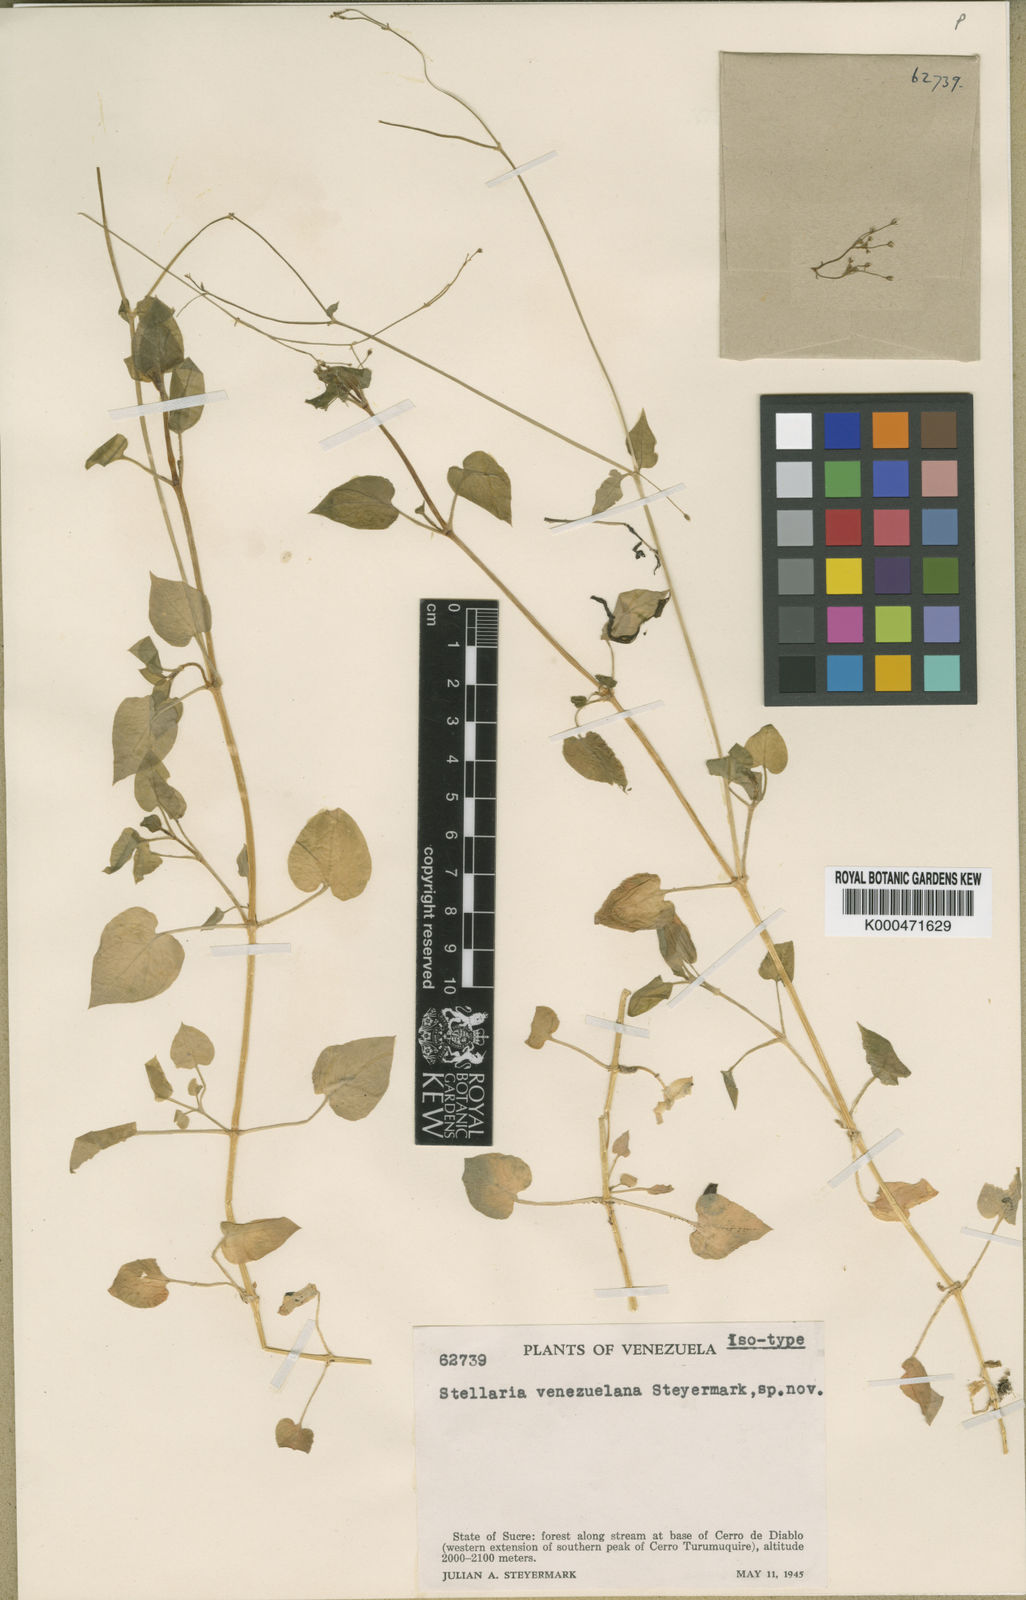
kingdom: Plantae
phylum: Tracheophyta
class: Magnoliopsida
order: Caryophyllales
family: Caryophyllaceae
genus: Stellaria
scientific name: Stellaria venezuelana
